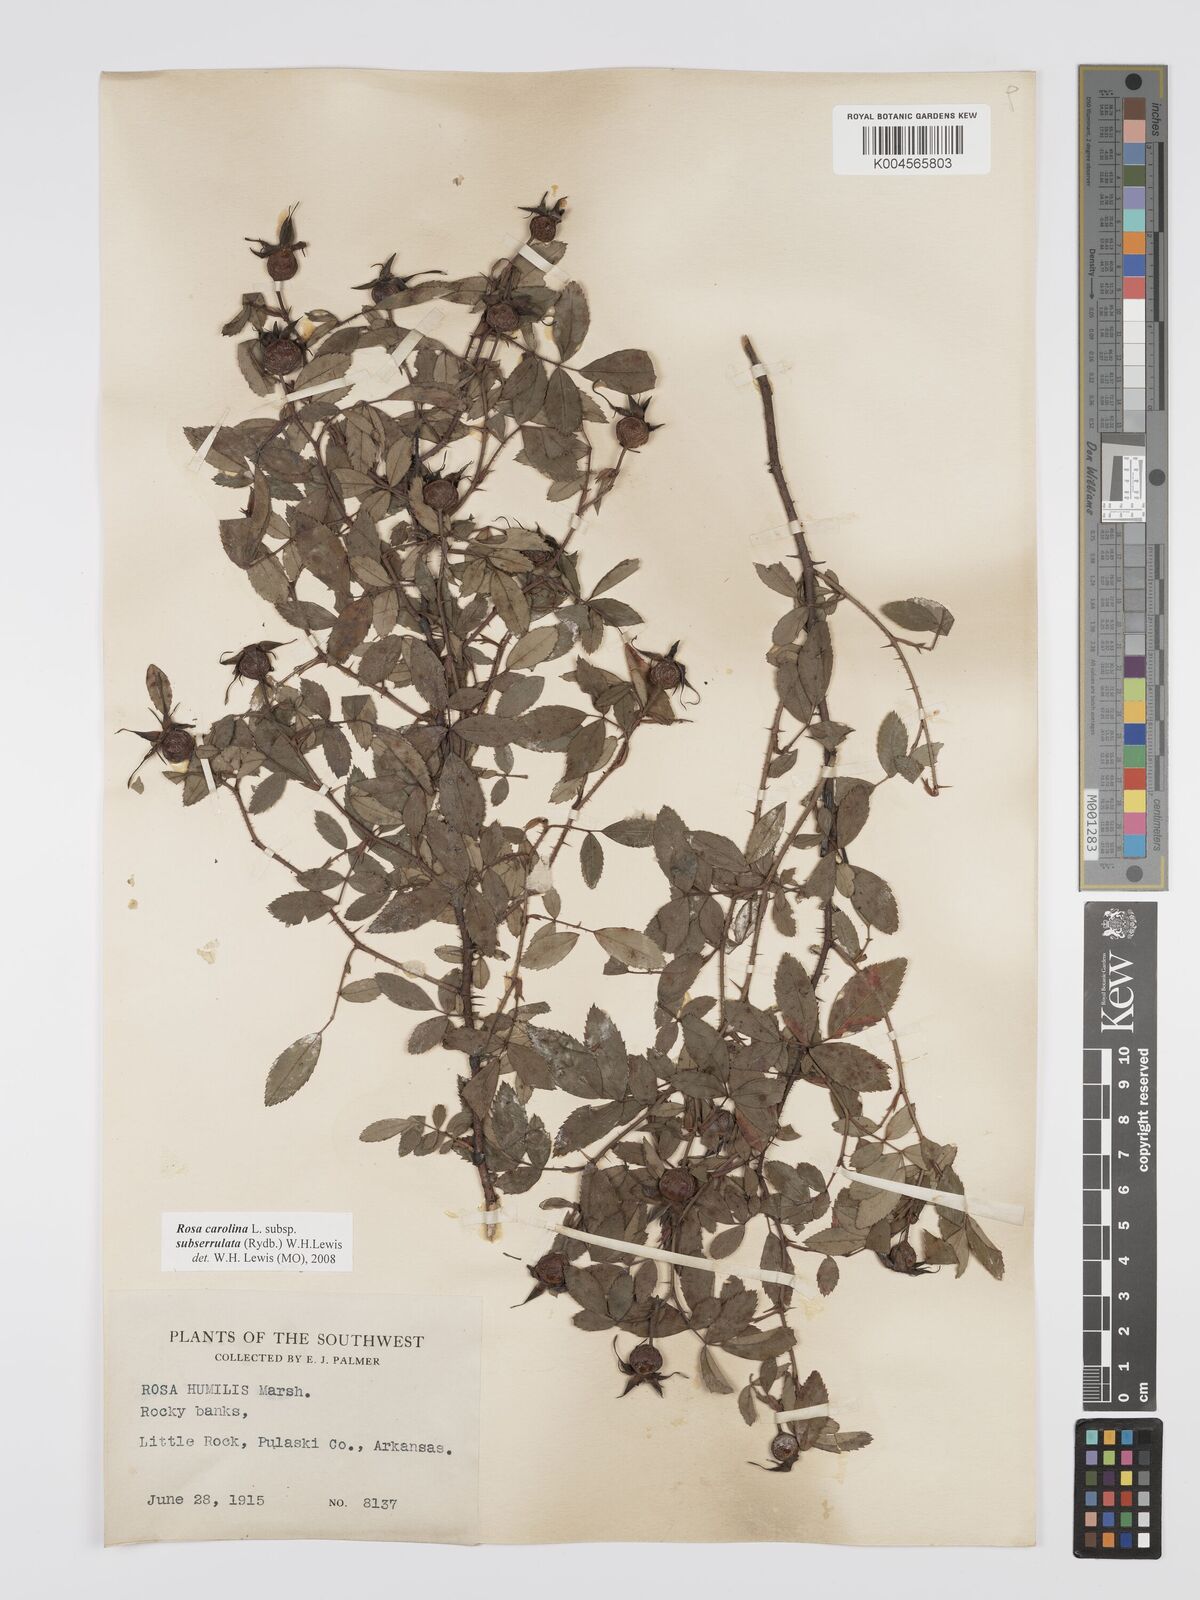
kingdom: Plantae
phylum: Tracheophyta
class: Magnoliopsida
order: Rosales
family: Rosaceae
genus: Rosa
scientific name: Rosa carolina
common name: Pasture rose
